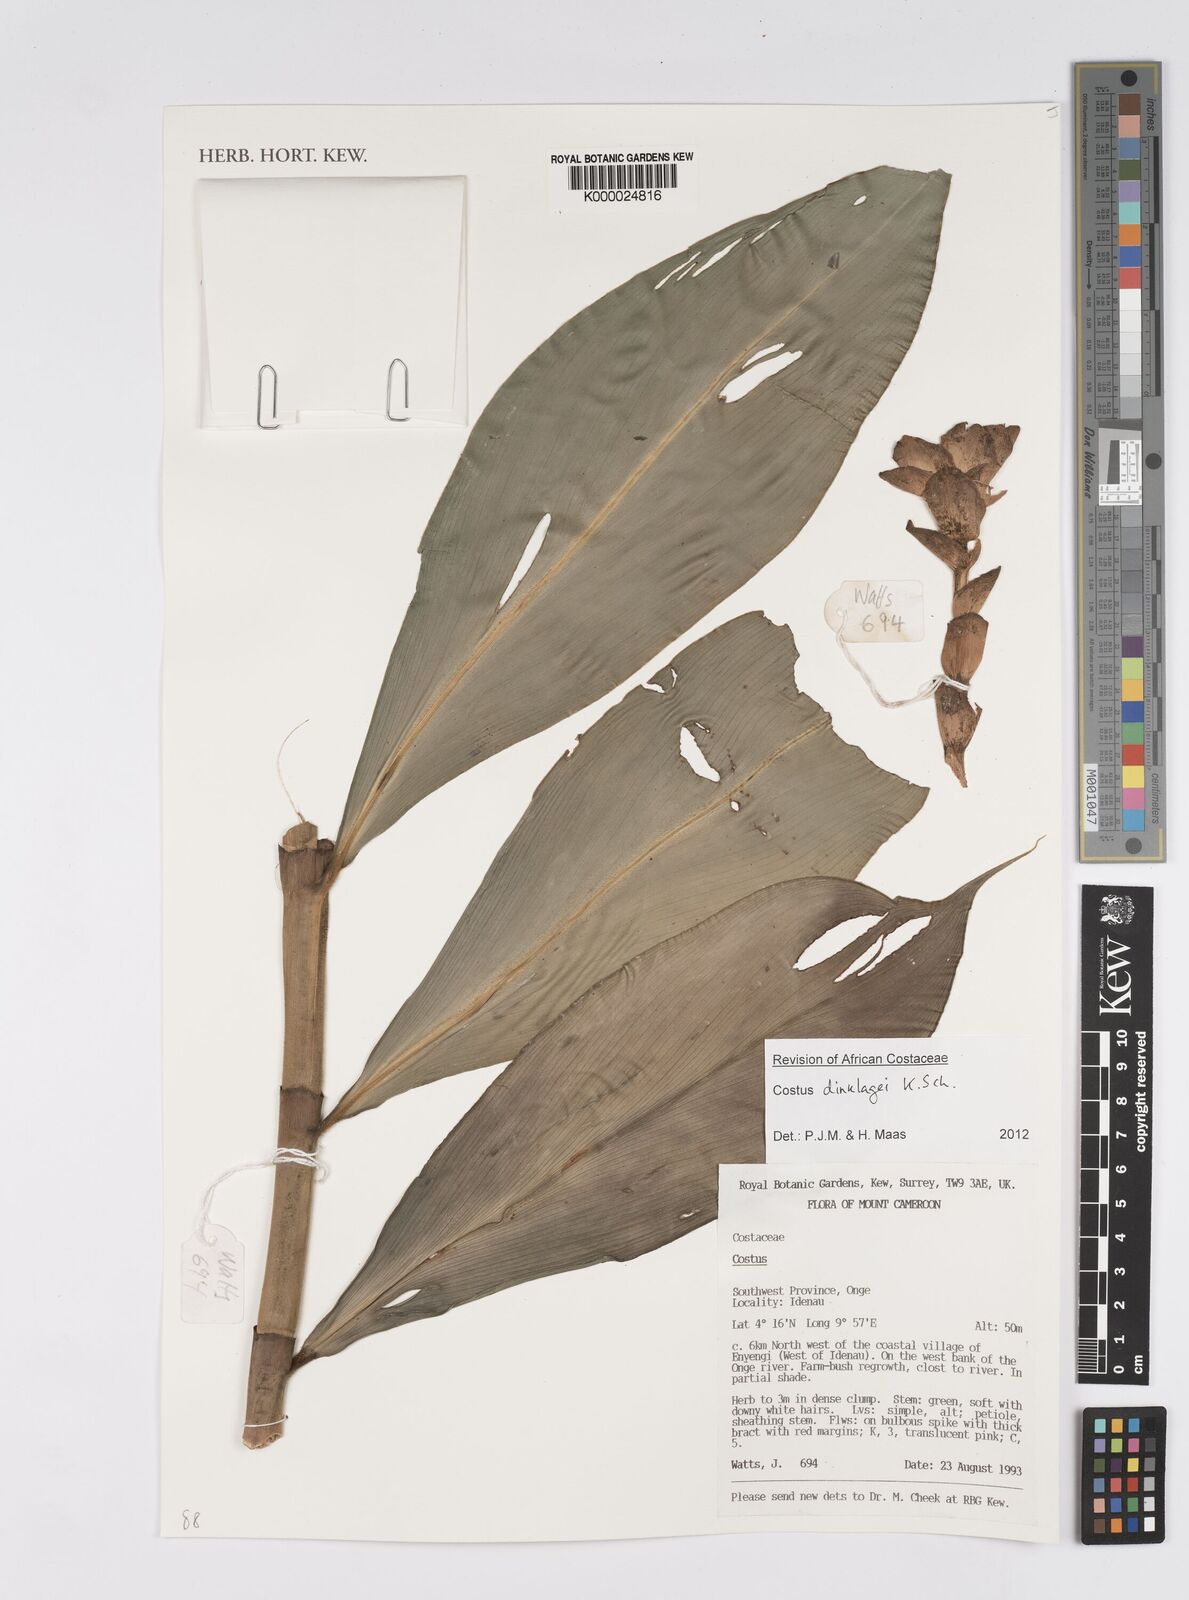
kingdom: Plantae
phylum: Tracheophyta
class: Liliopsida
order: Zingiberales
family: Costaceae
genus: Costus
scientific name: Costus dinklagei
